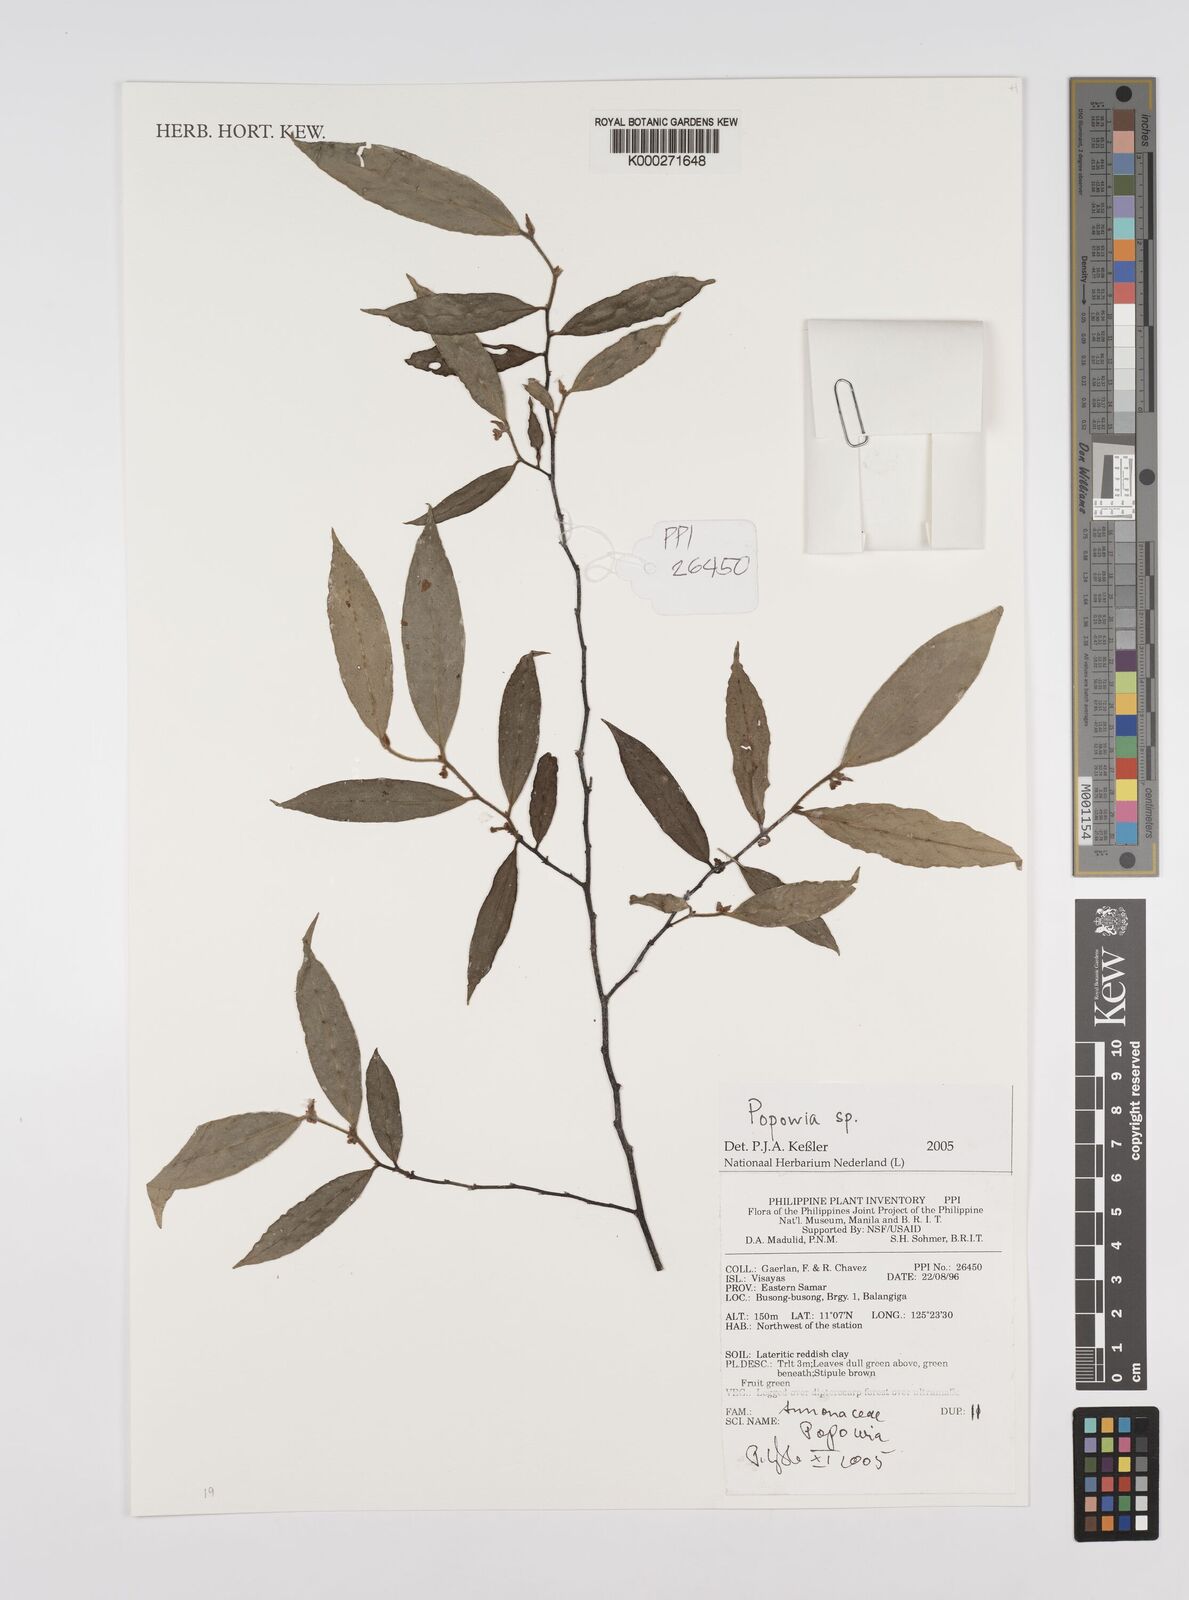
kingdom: Plantae
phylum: Tracheophyta
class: Magnoliopsida
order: Magnoliales
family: Annonaceae
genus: Popowia
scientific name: Popowia
